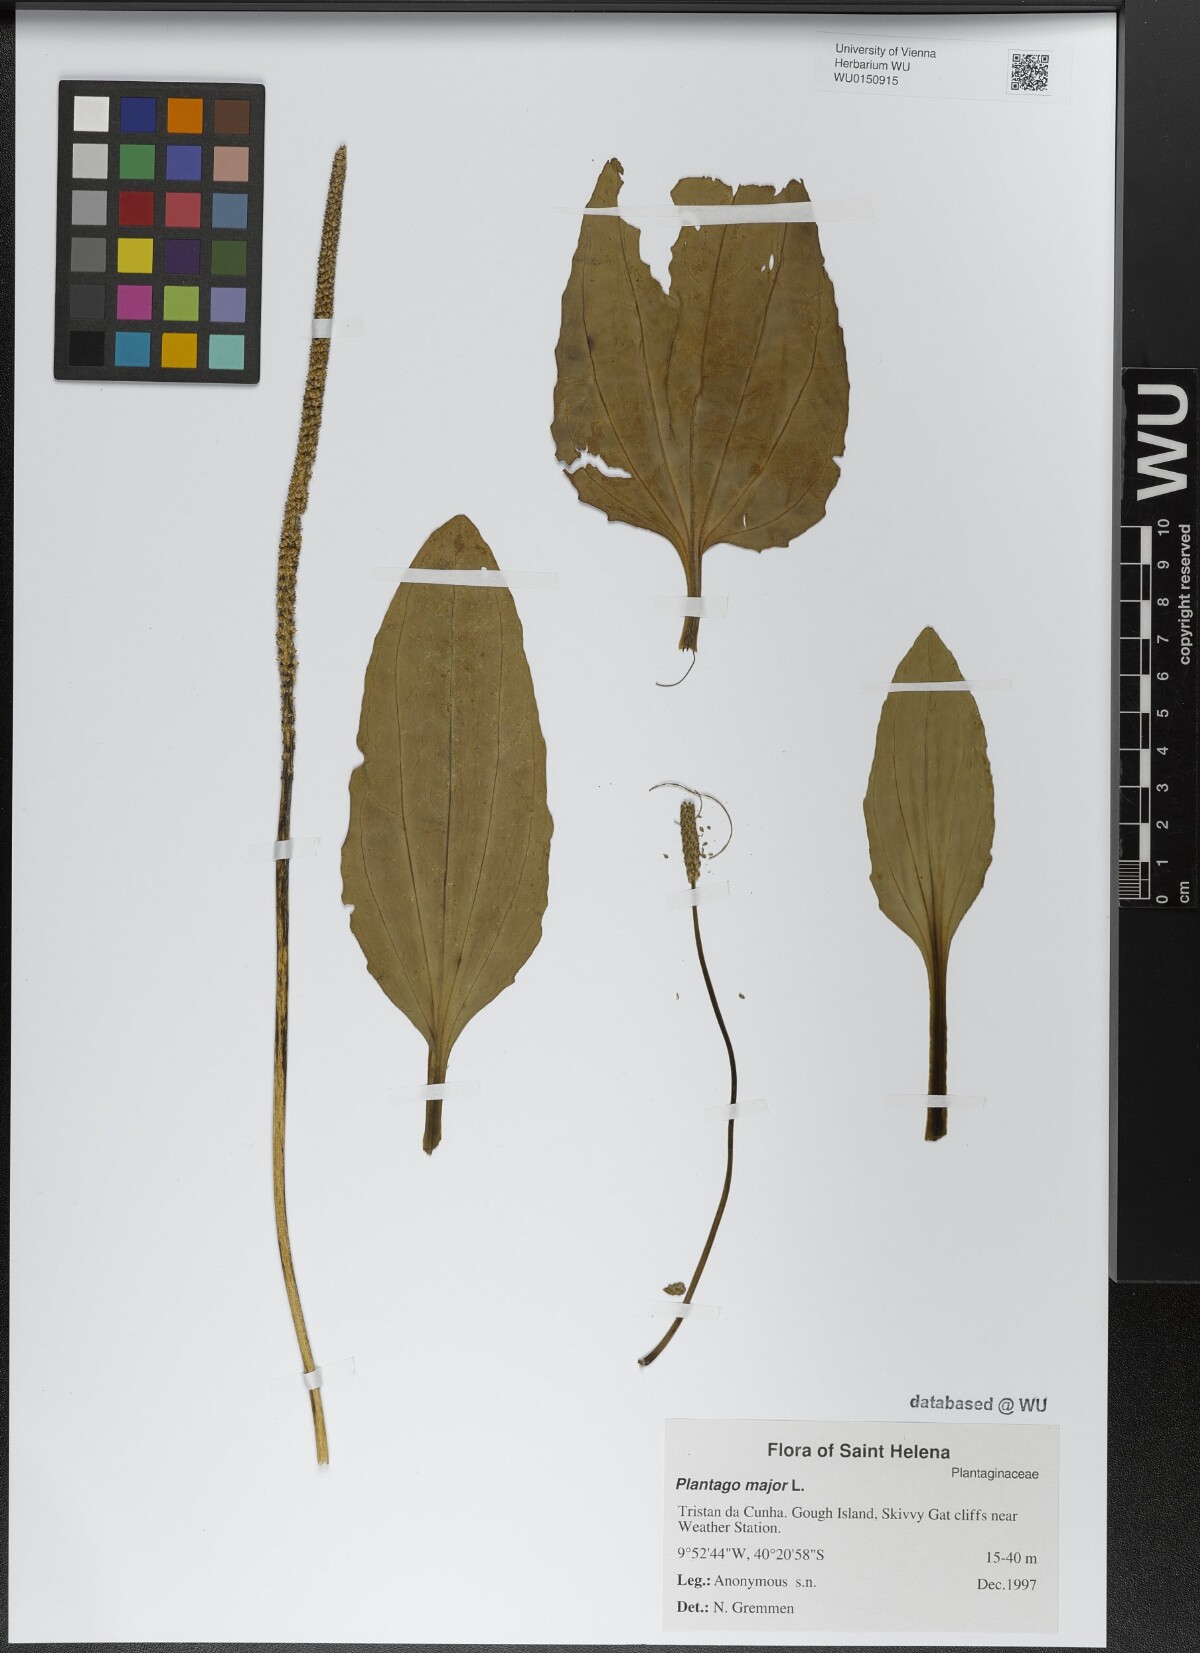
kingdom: Plantae
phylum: Tracheophyta
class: Magnoliopsida
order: Lamiales
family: Plantaginaceae
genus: Plantago
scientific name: Plantago major
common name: Common plantain
